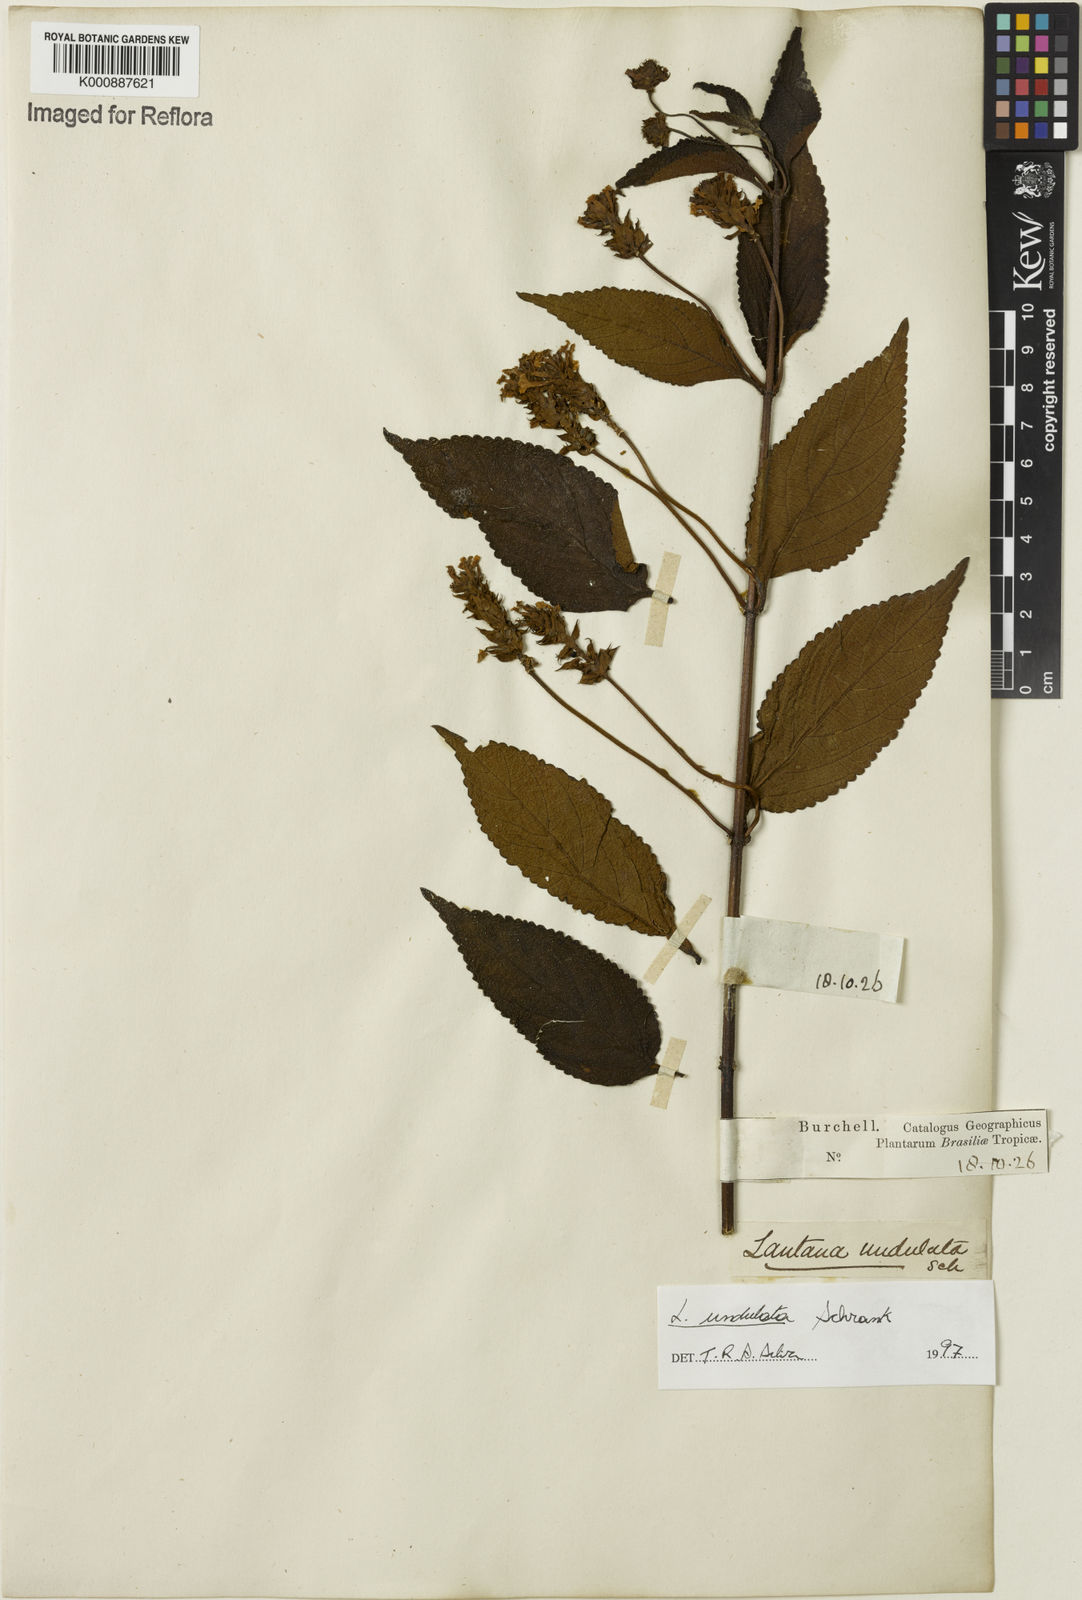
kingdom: Plantae
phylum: Tracheophyta
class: Magnoliopsida
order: Lamiales
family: Verbenaceae
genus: Lantana
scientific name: Lantana undulata
